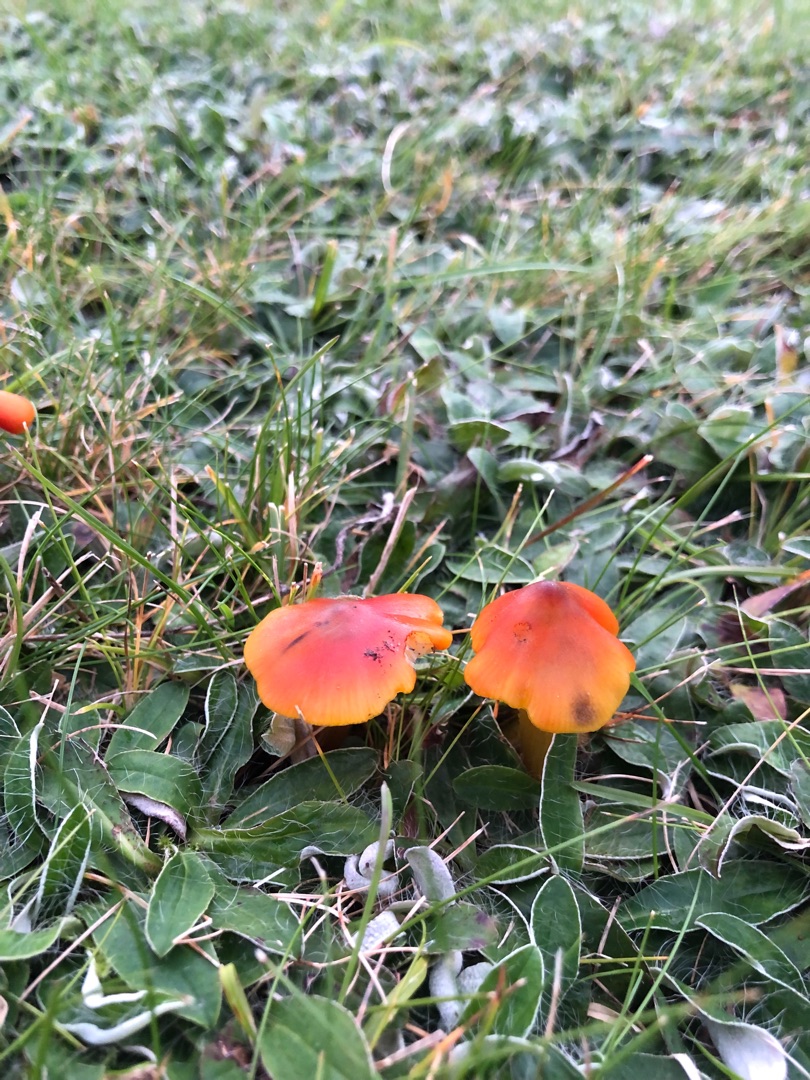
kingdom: Fungi
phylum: Basidiomycota
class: Agaricomycetes
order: Agaricales
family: Hygrophoraceae
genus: Hygrocybe
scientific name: Hygrocybe conica
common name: Kegle-vokshat
